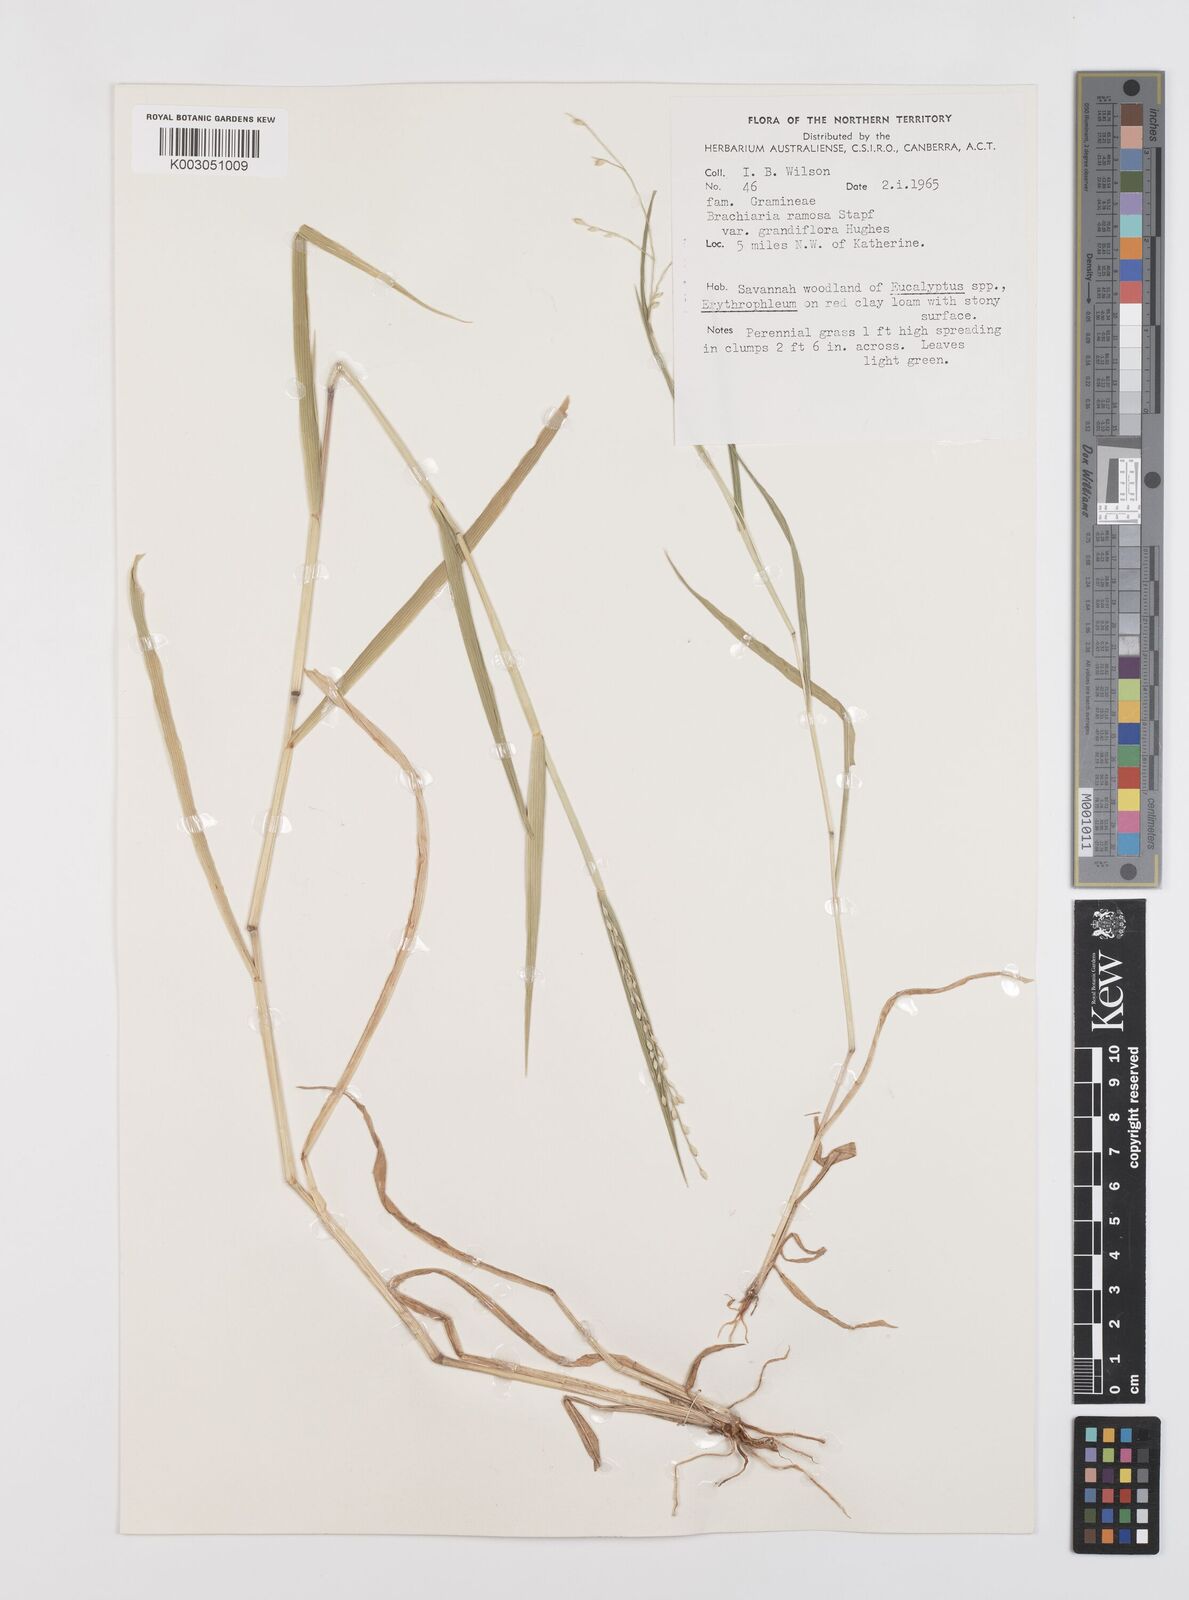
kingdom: Plantae
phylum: Tracheophyta
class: Liliopsida
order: Poales
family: Poaceae
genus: Urochloa
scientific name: Urochloa pubigera
